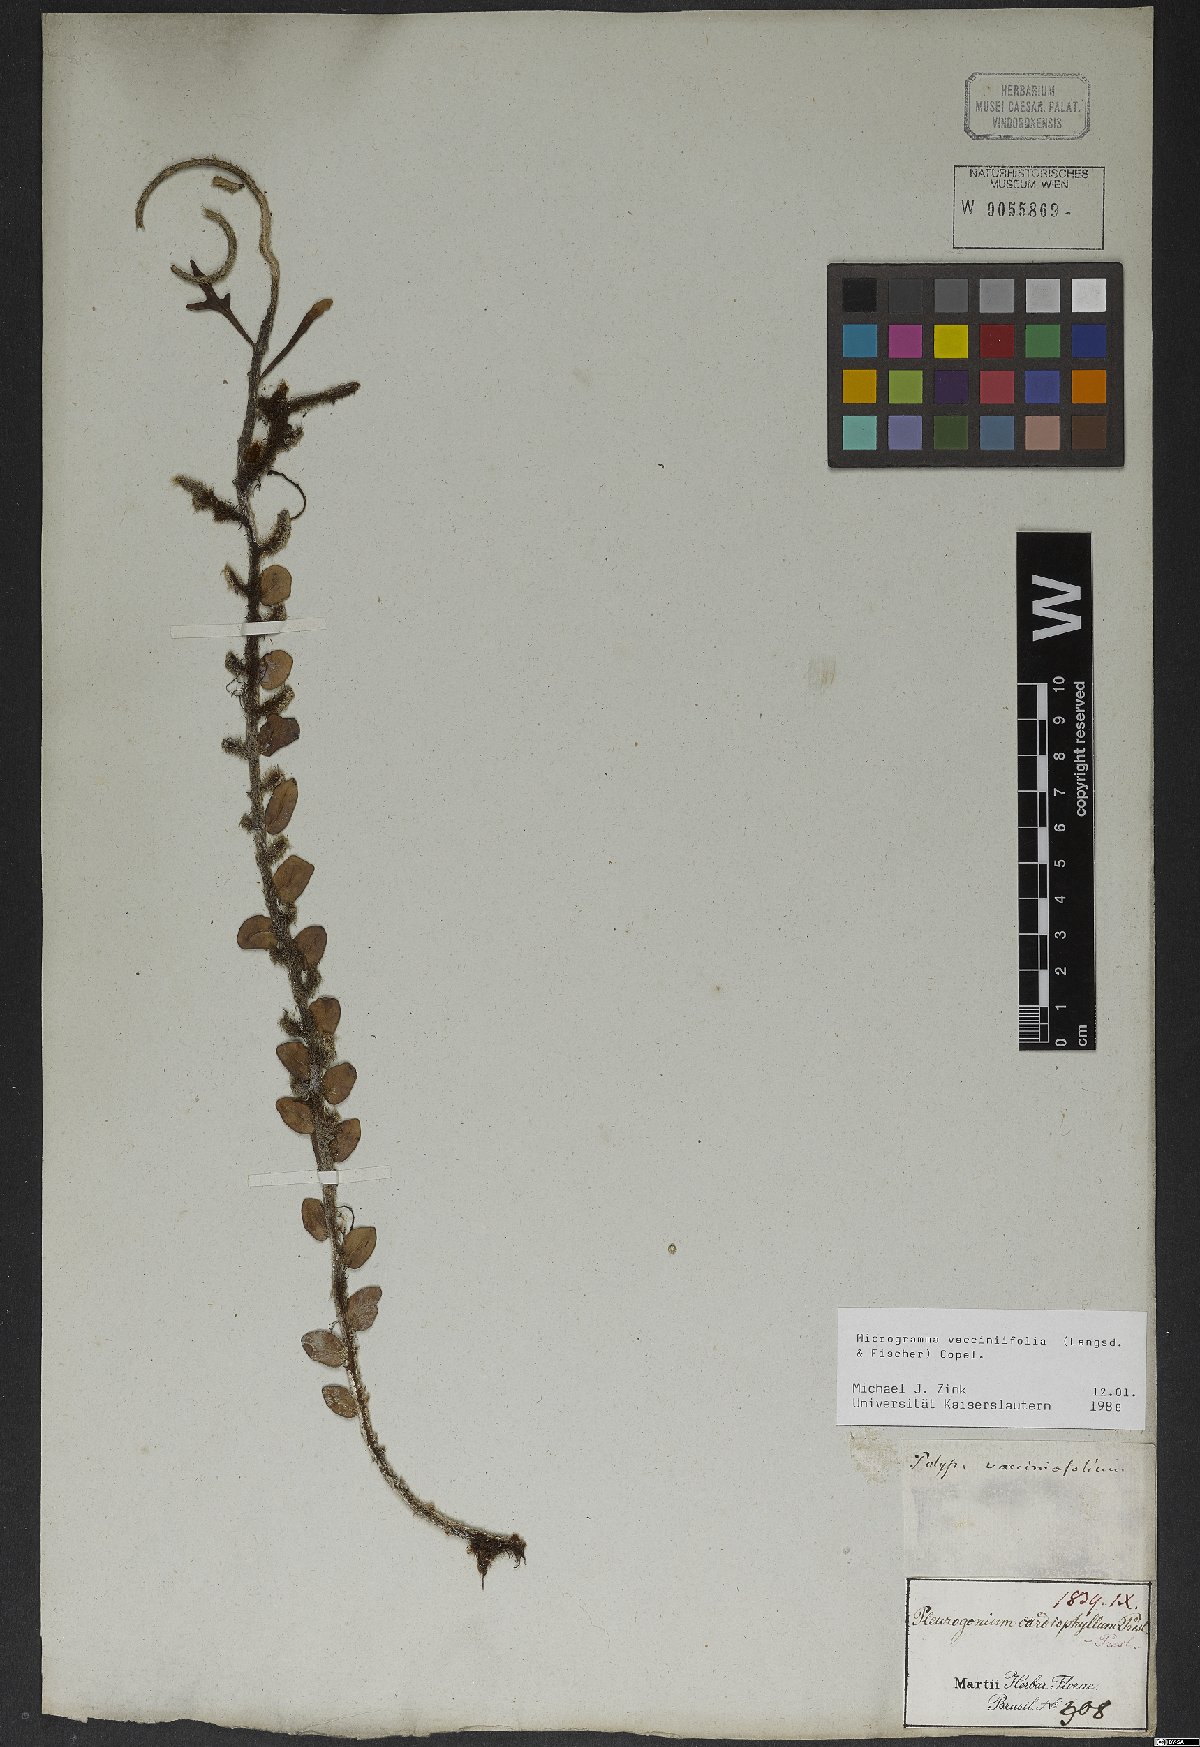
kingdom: Plantae
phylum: Tracheophyta
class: Polypodiopsida
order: Polypodiales
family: Polypodiaceae
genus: Microgramma
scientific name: Microgramma vaccinifolia
